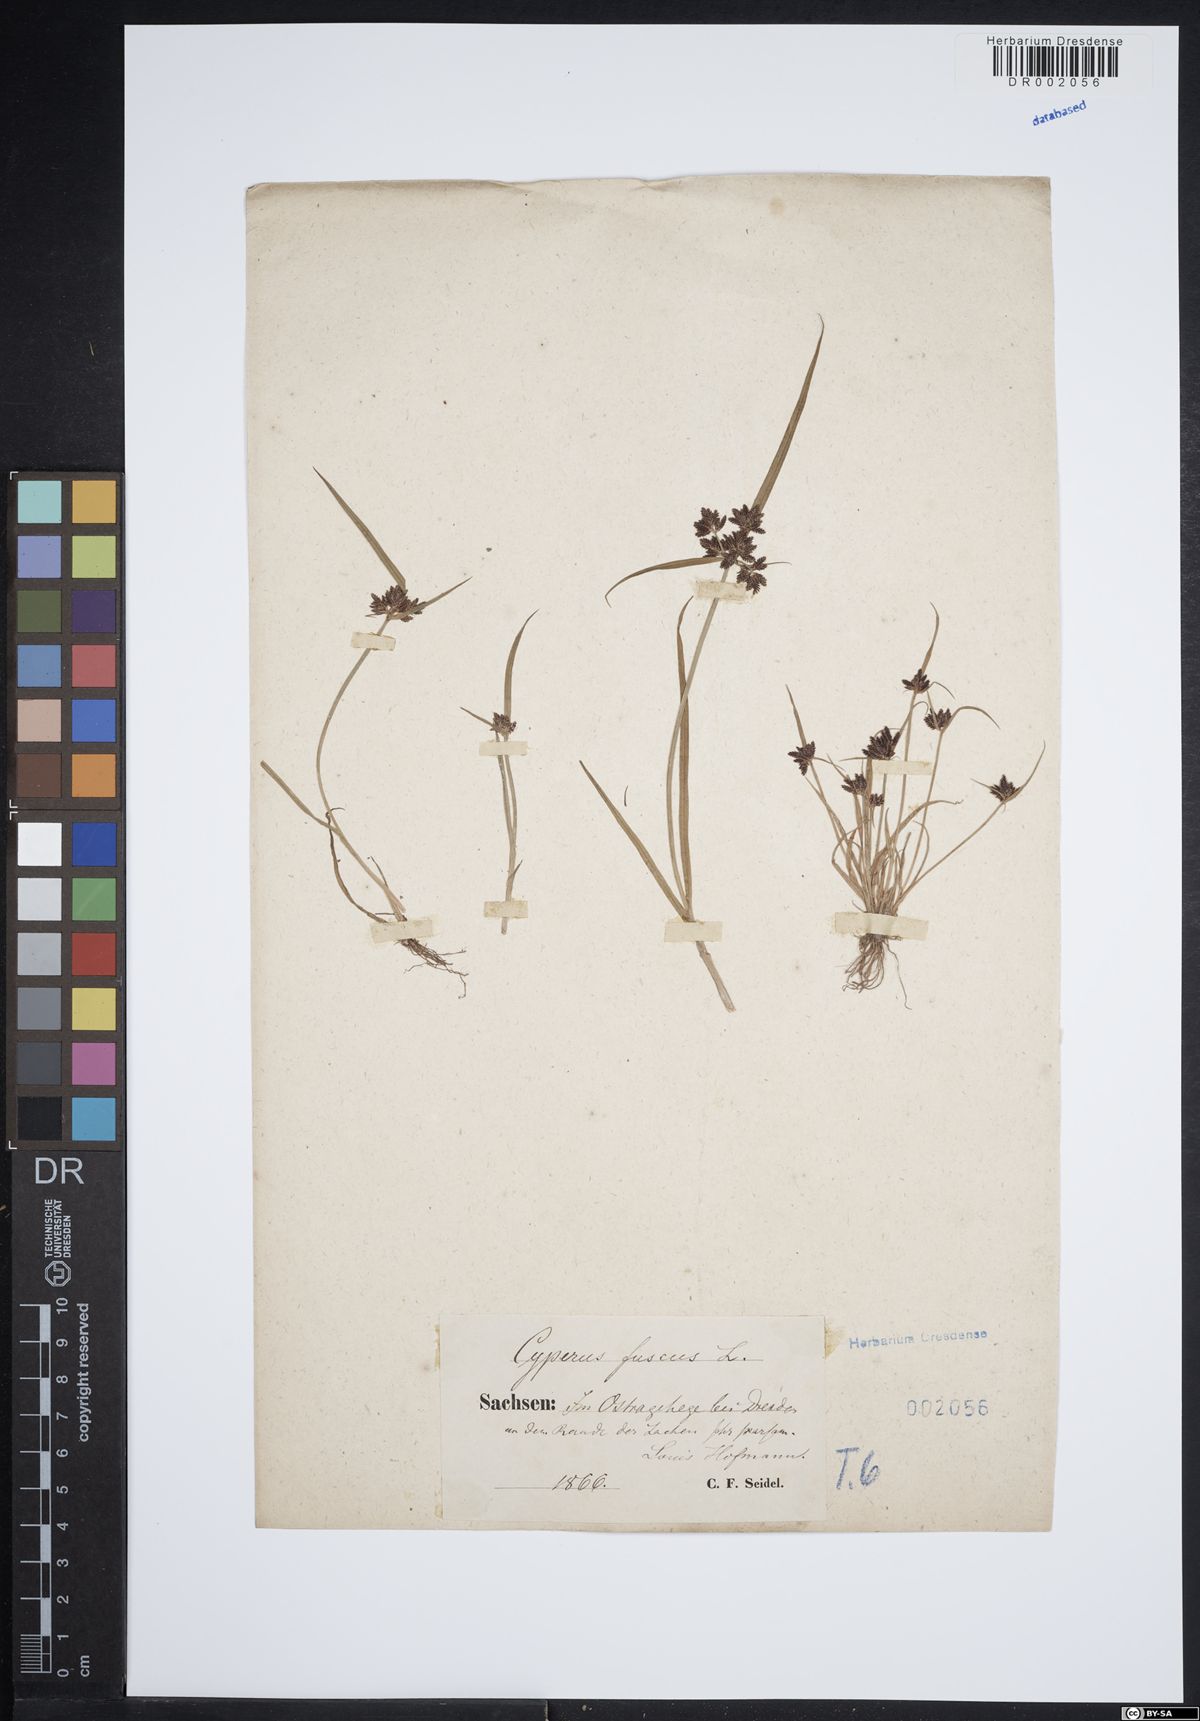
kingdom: Plantae
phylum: Tracheophyta
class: Liliopsida
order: Poales
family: Cyperaceae
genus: Cyperus
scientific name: Cyperus fuscus
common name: Brown galingale
